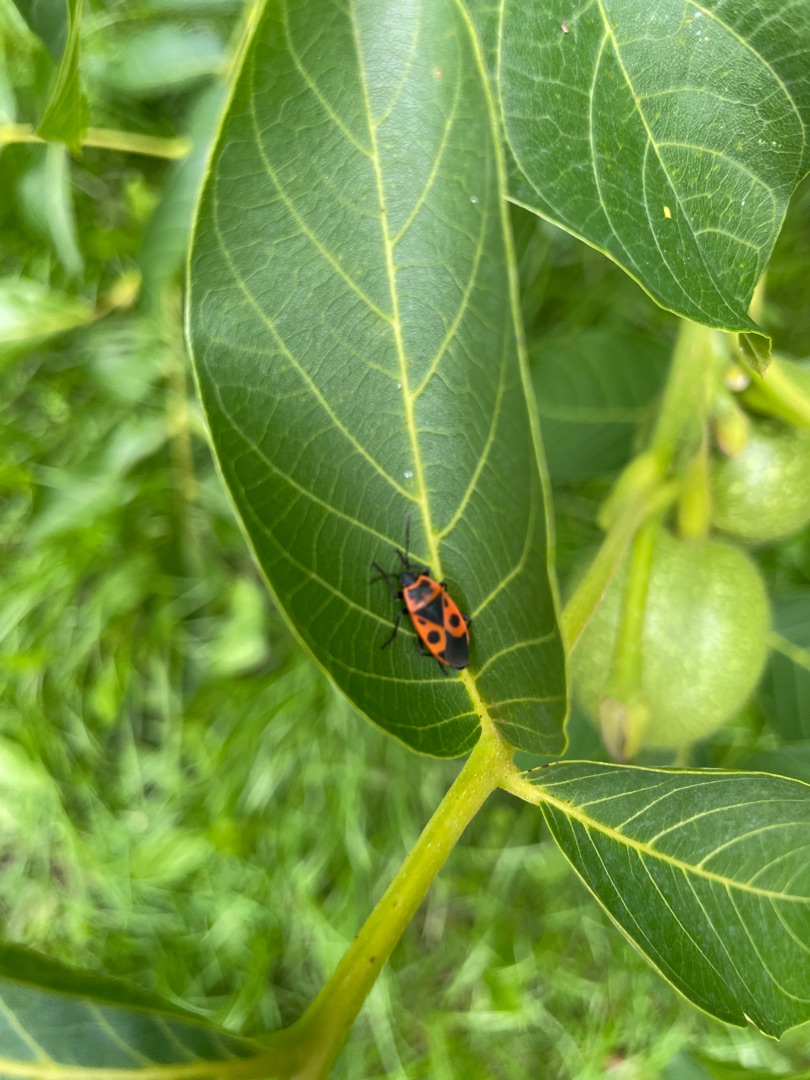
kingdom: Animalia
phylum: Arthropoda
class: Insecta
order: Hemiptera
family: Pyrrhocoridae
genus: Pyrrhocoris
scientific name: Pyrrhocoris apterus
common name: Ildtæge
